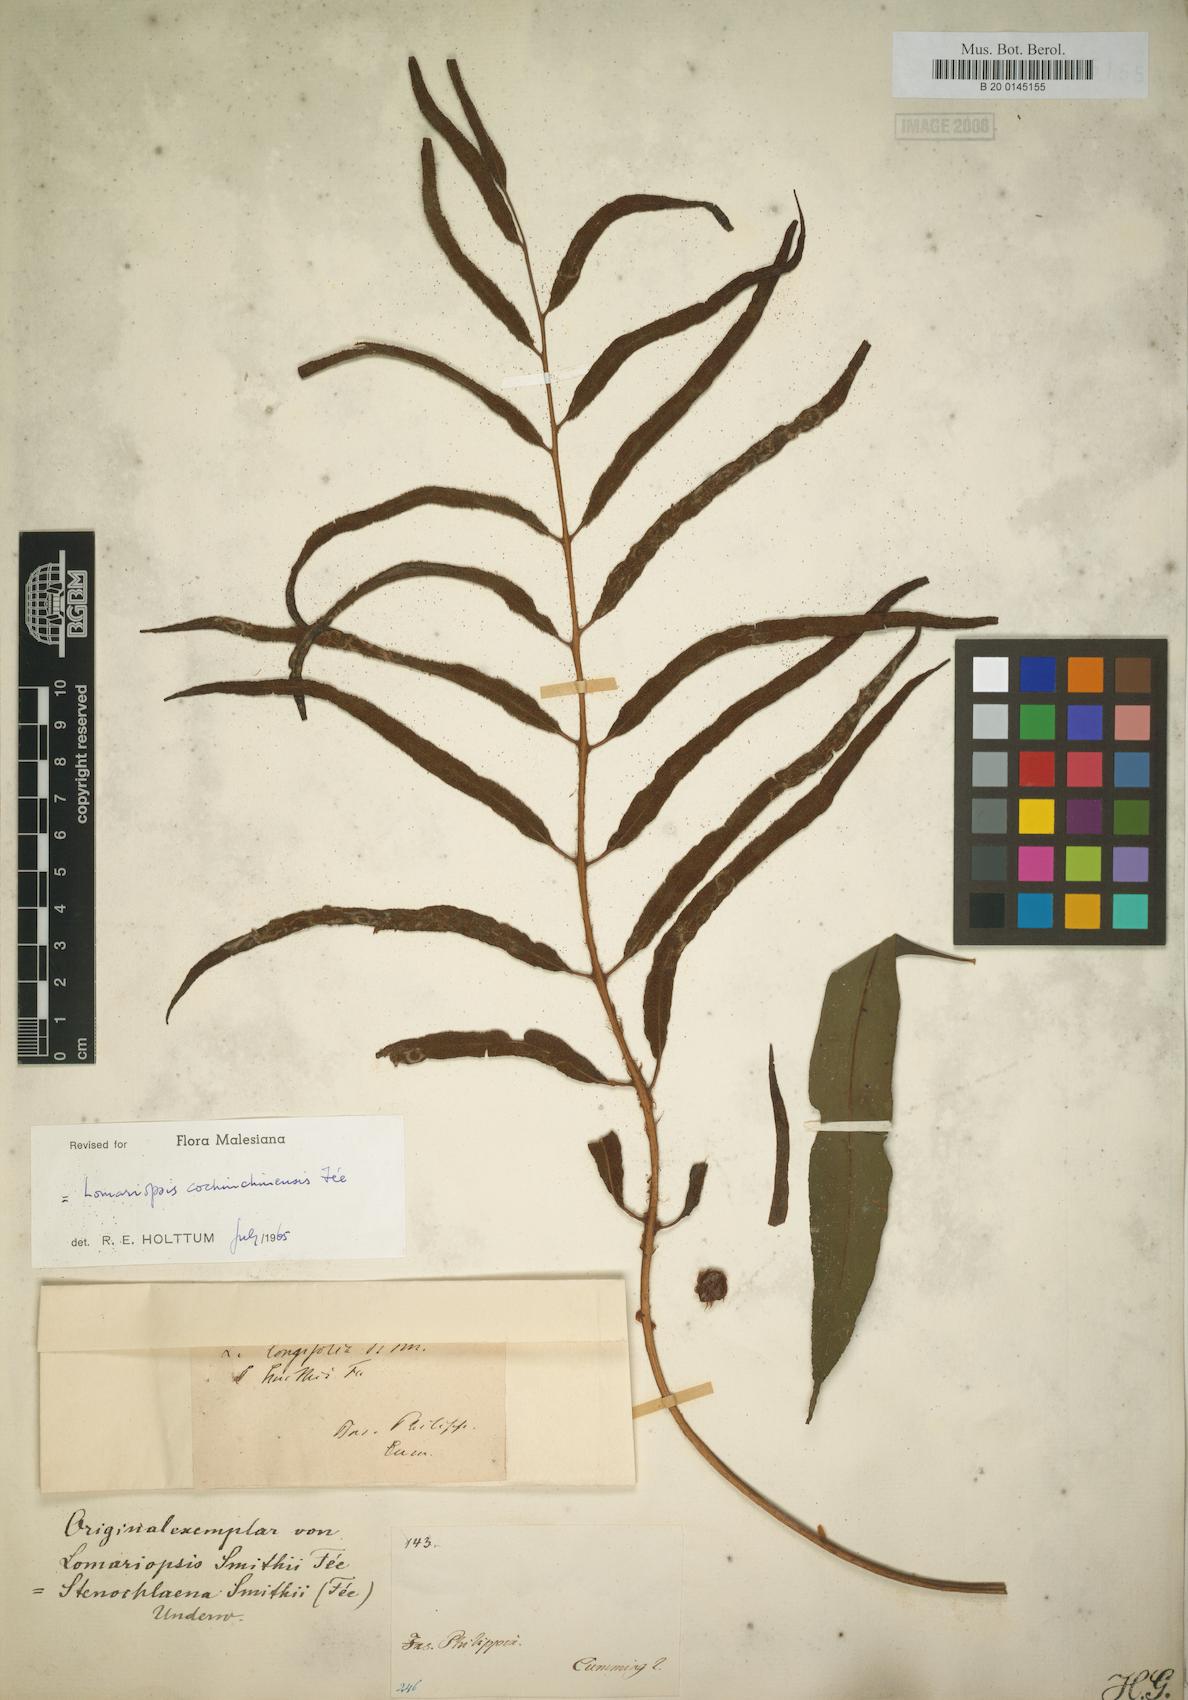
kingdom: Plantae
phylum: Tracheophyta
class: Polypodiopsida
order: Polypodiales
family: Dryopteridaceae
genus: Lomagramma
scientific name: Lomagramma
